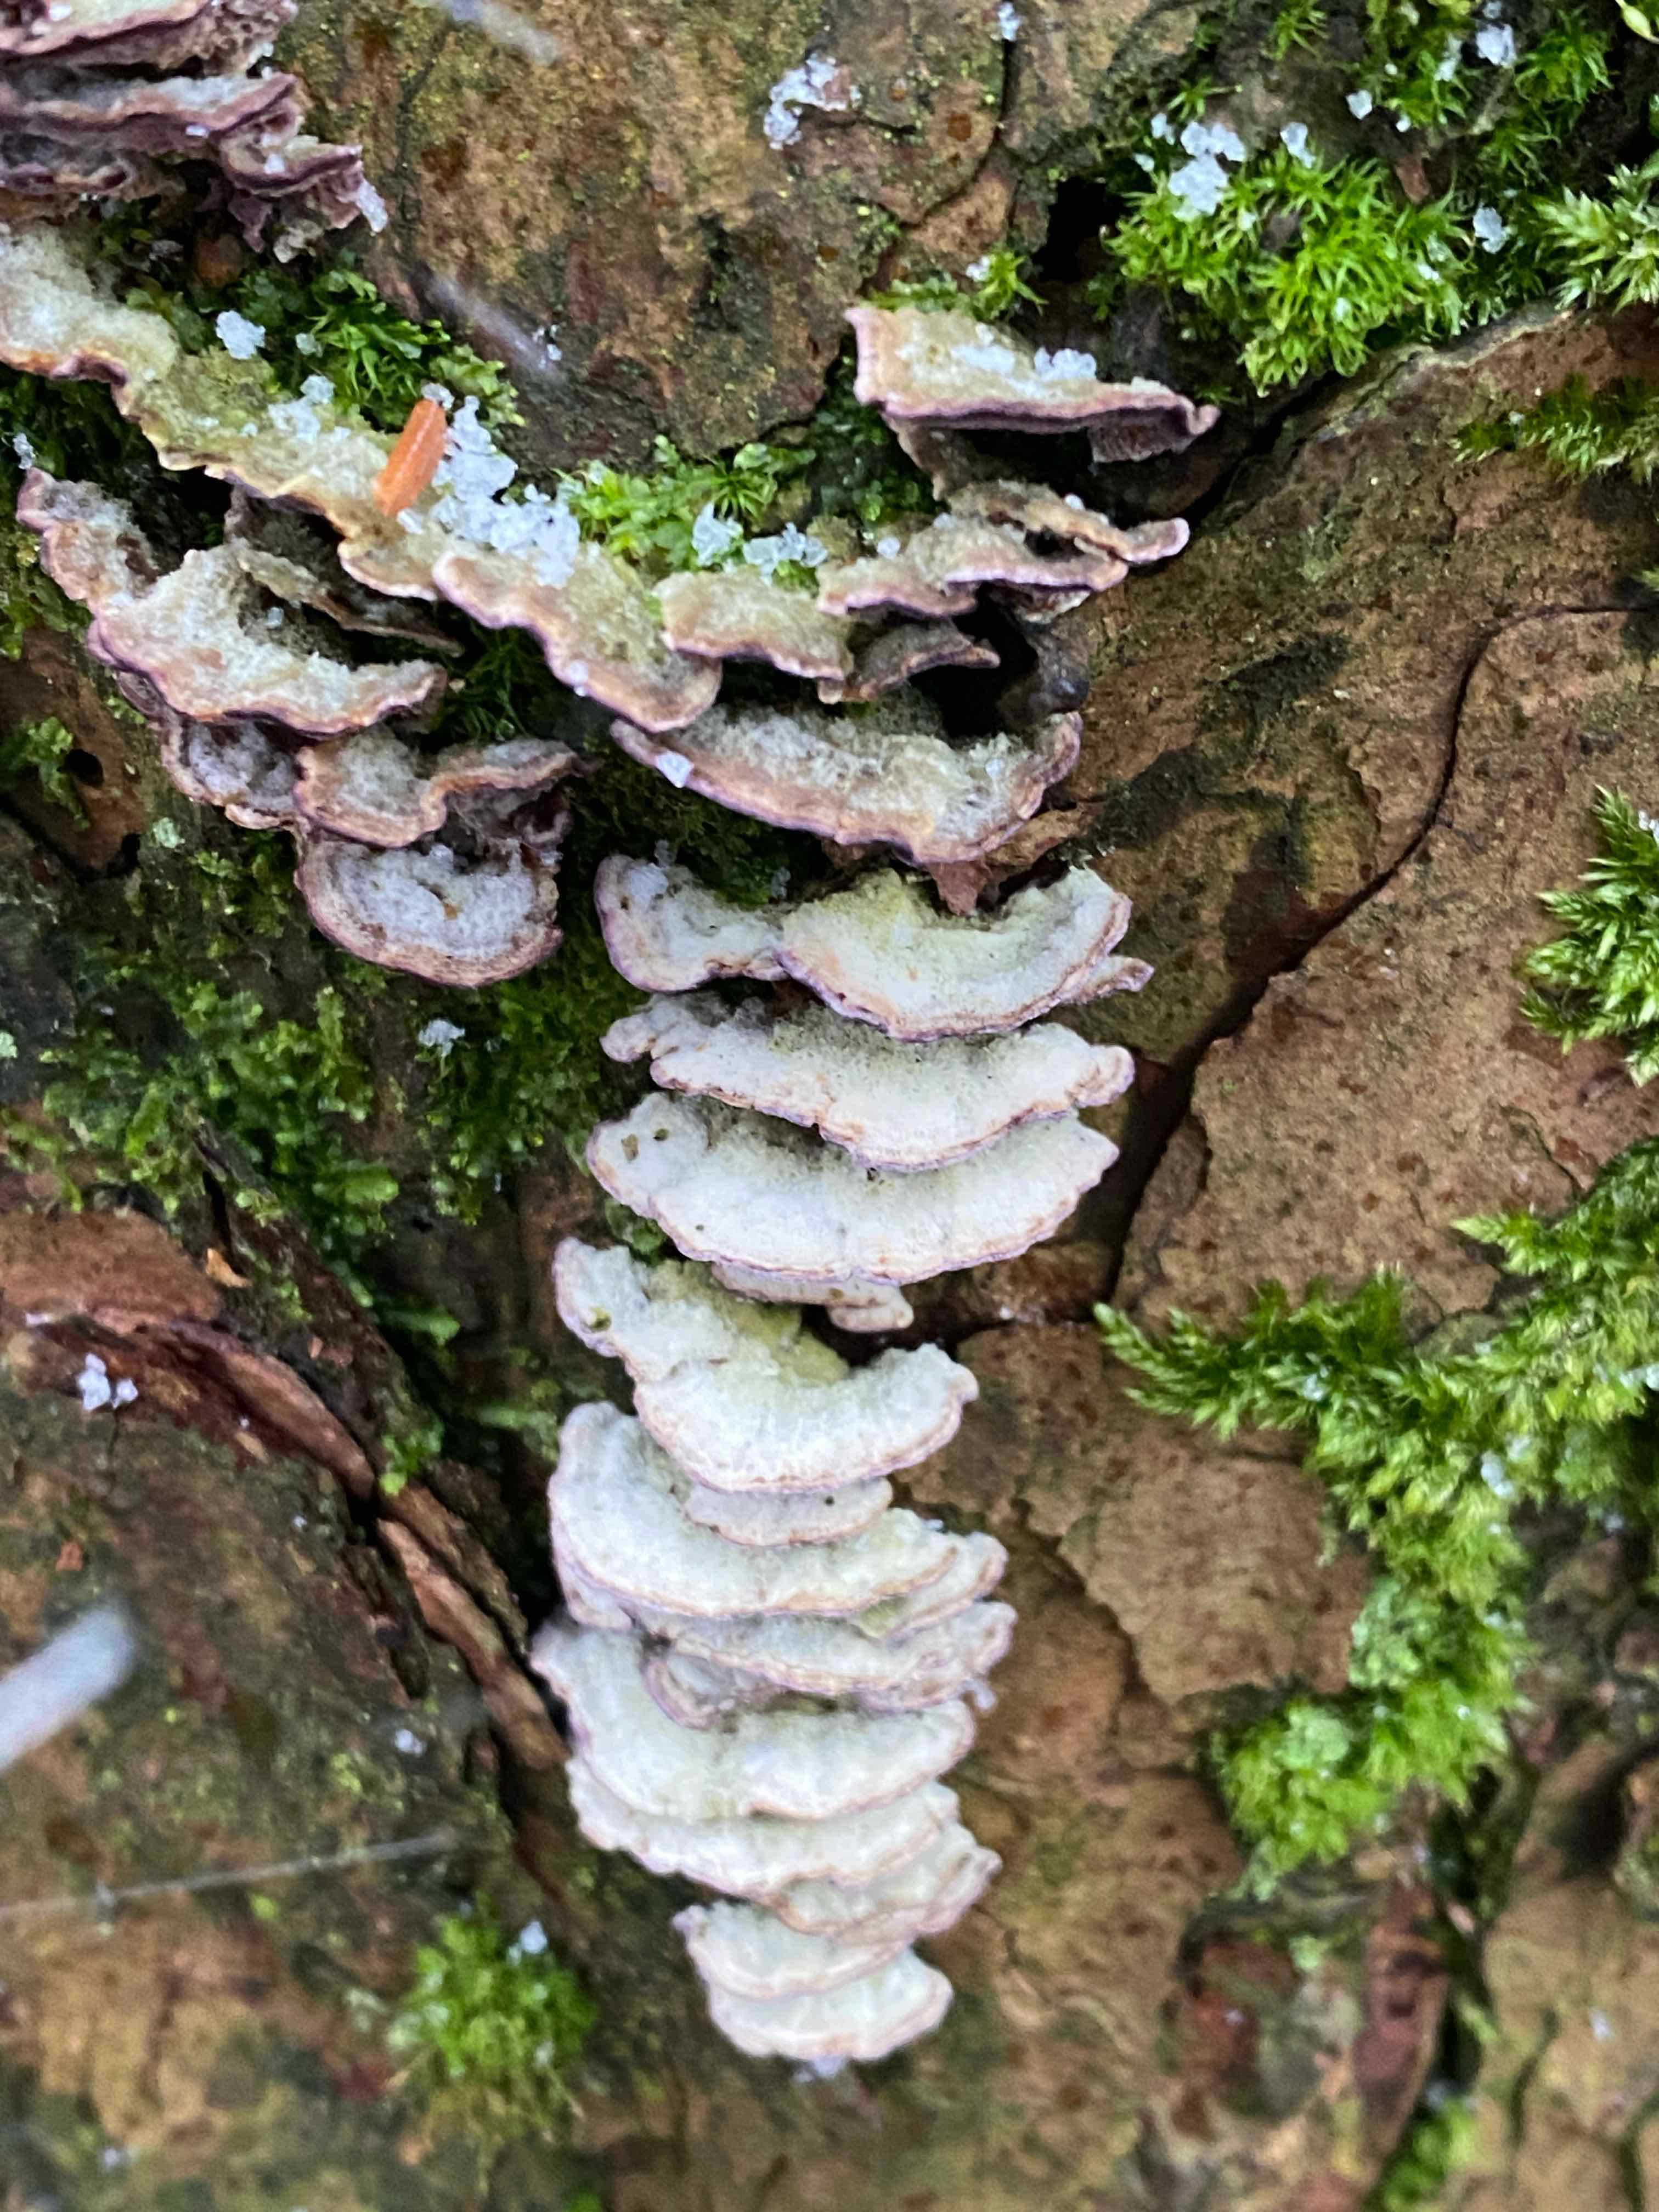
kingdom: Fungi
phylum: Basidiomycota
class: Agaricomycetes
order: Hymenochaetales
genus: Trichaptum
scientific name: Trichaptum abietinum
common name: almindelig violporesvamp
